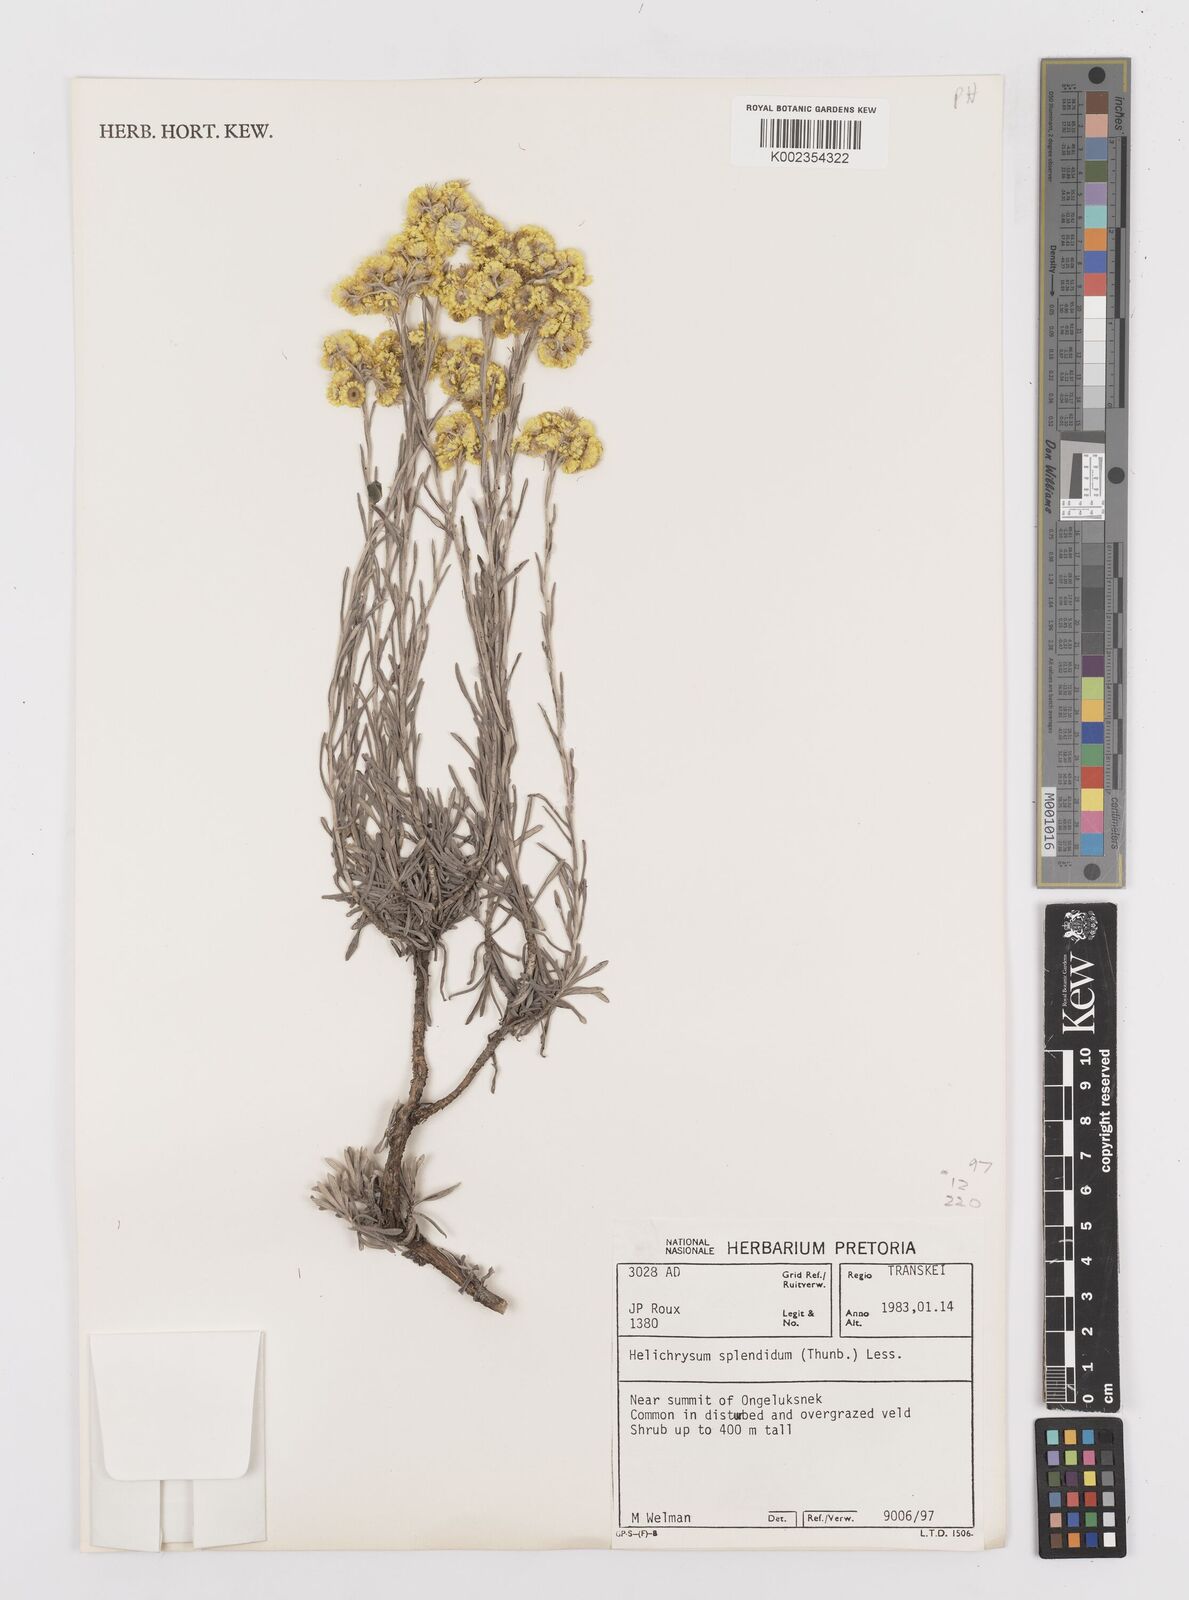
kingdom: Plantae
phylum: Tracheophyta
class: Magnoliopsida
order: Asterales
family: Asteraceae
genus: Helichrysum
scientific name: Helichrysum splendidum
